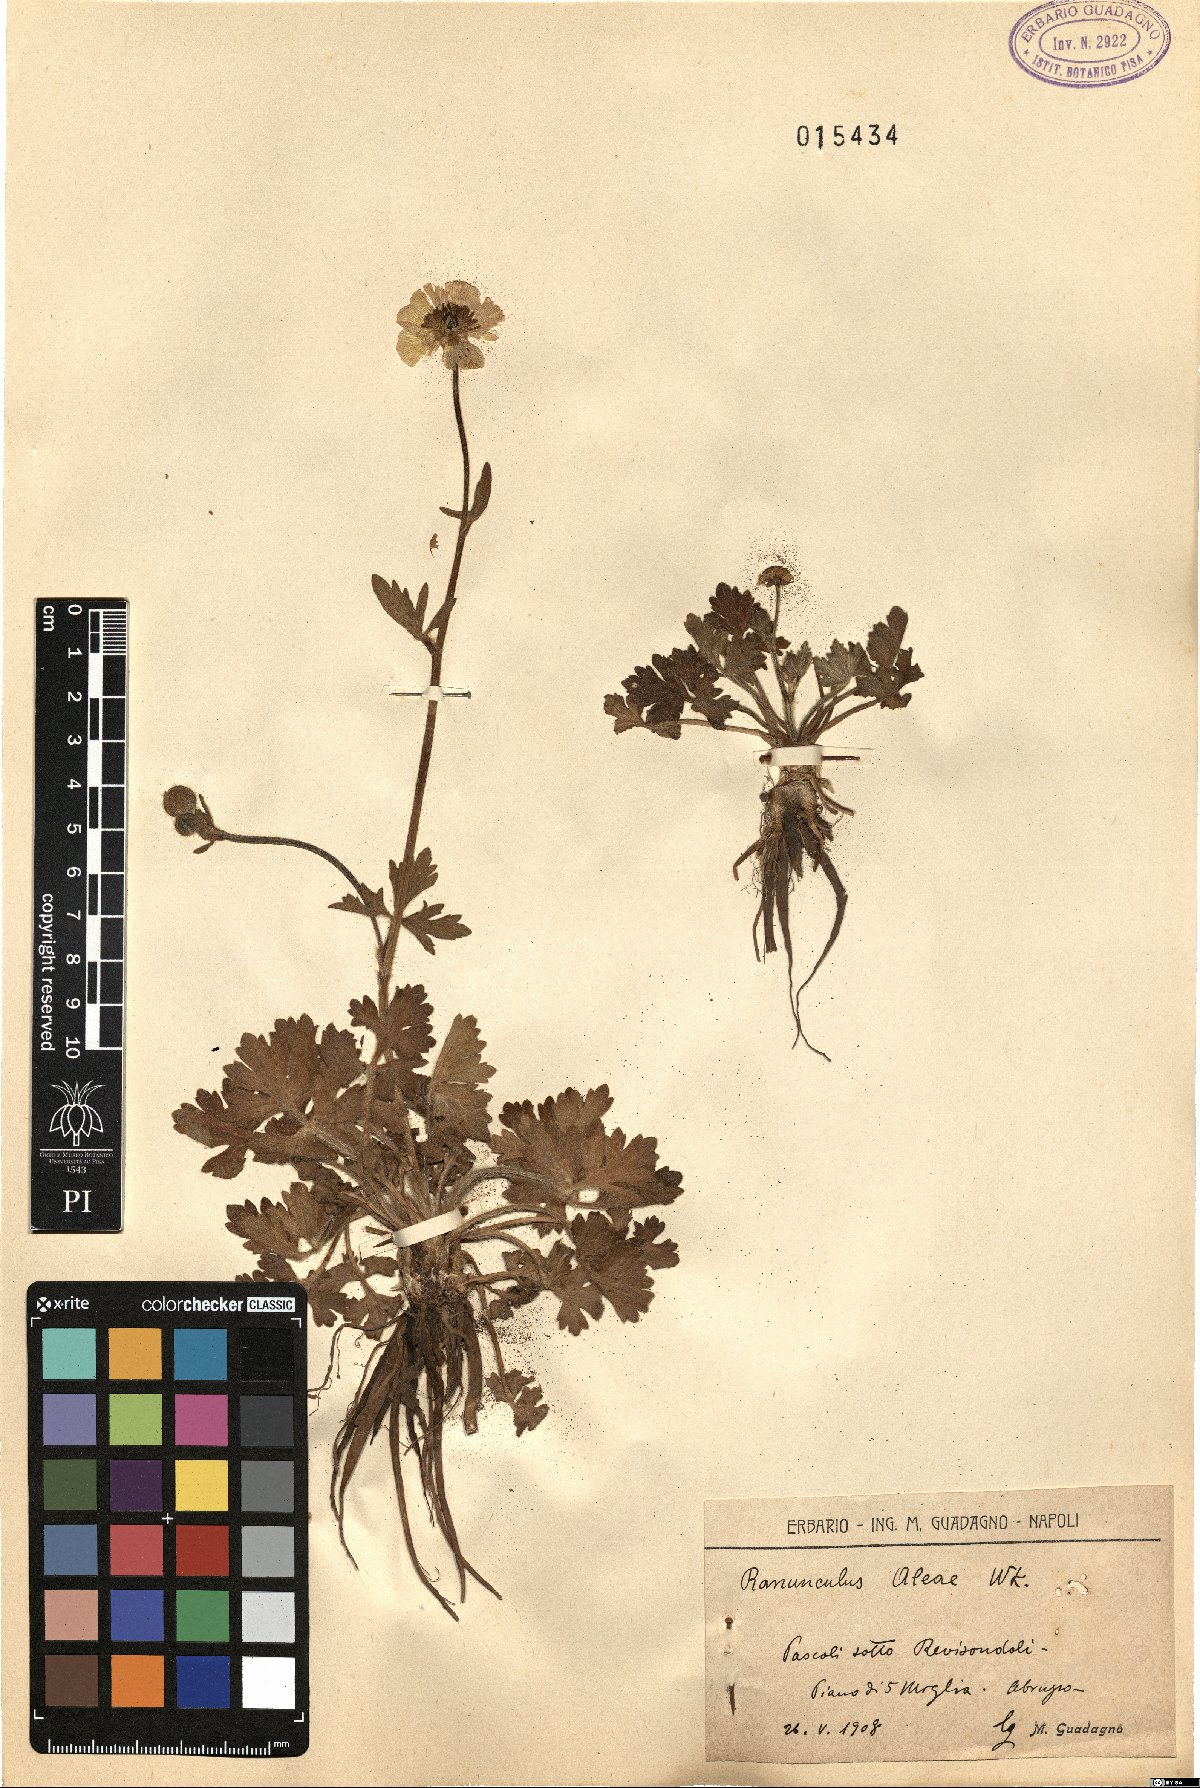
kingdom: Plantae
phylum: Tracheophyta
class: Magnoliopsida
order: Ranunculales
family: Ranunculaceae
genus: Ranunculus
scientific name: Ranunculus neapolitanus
